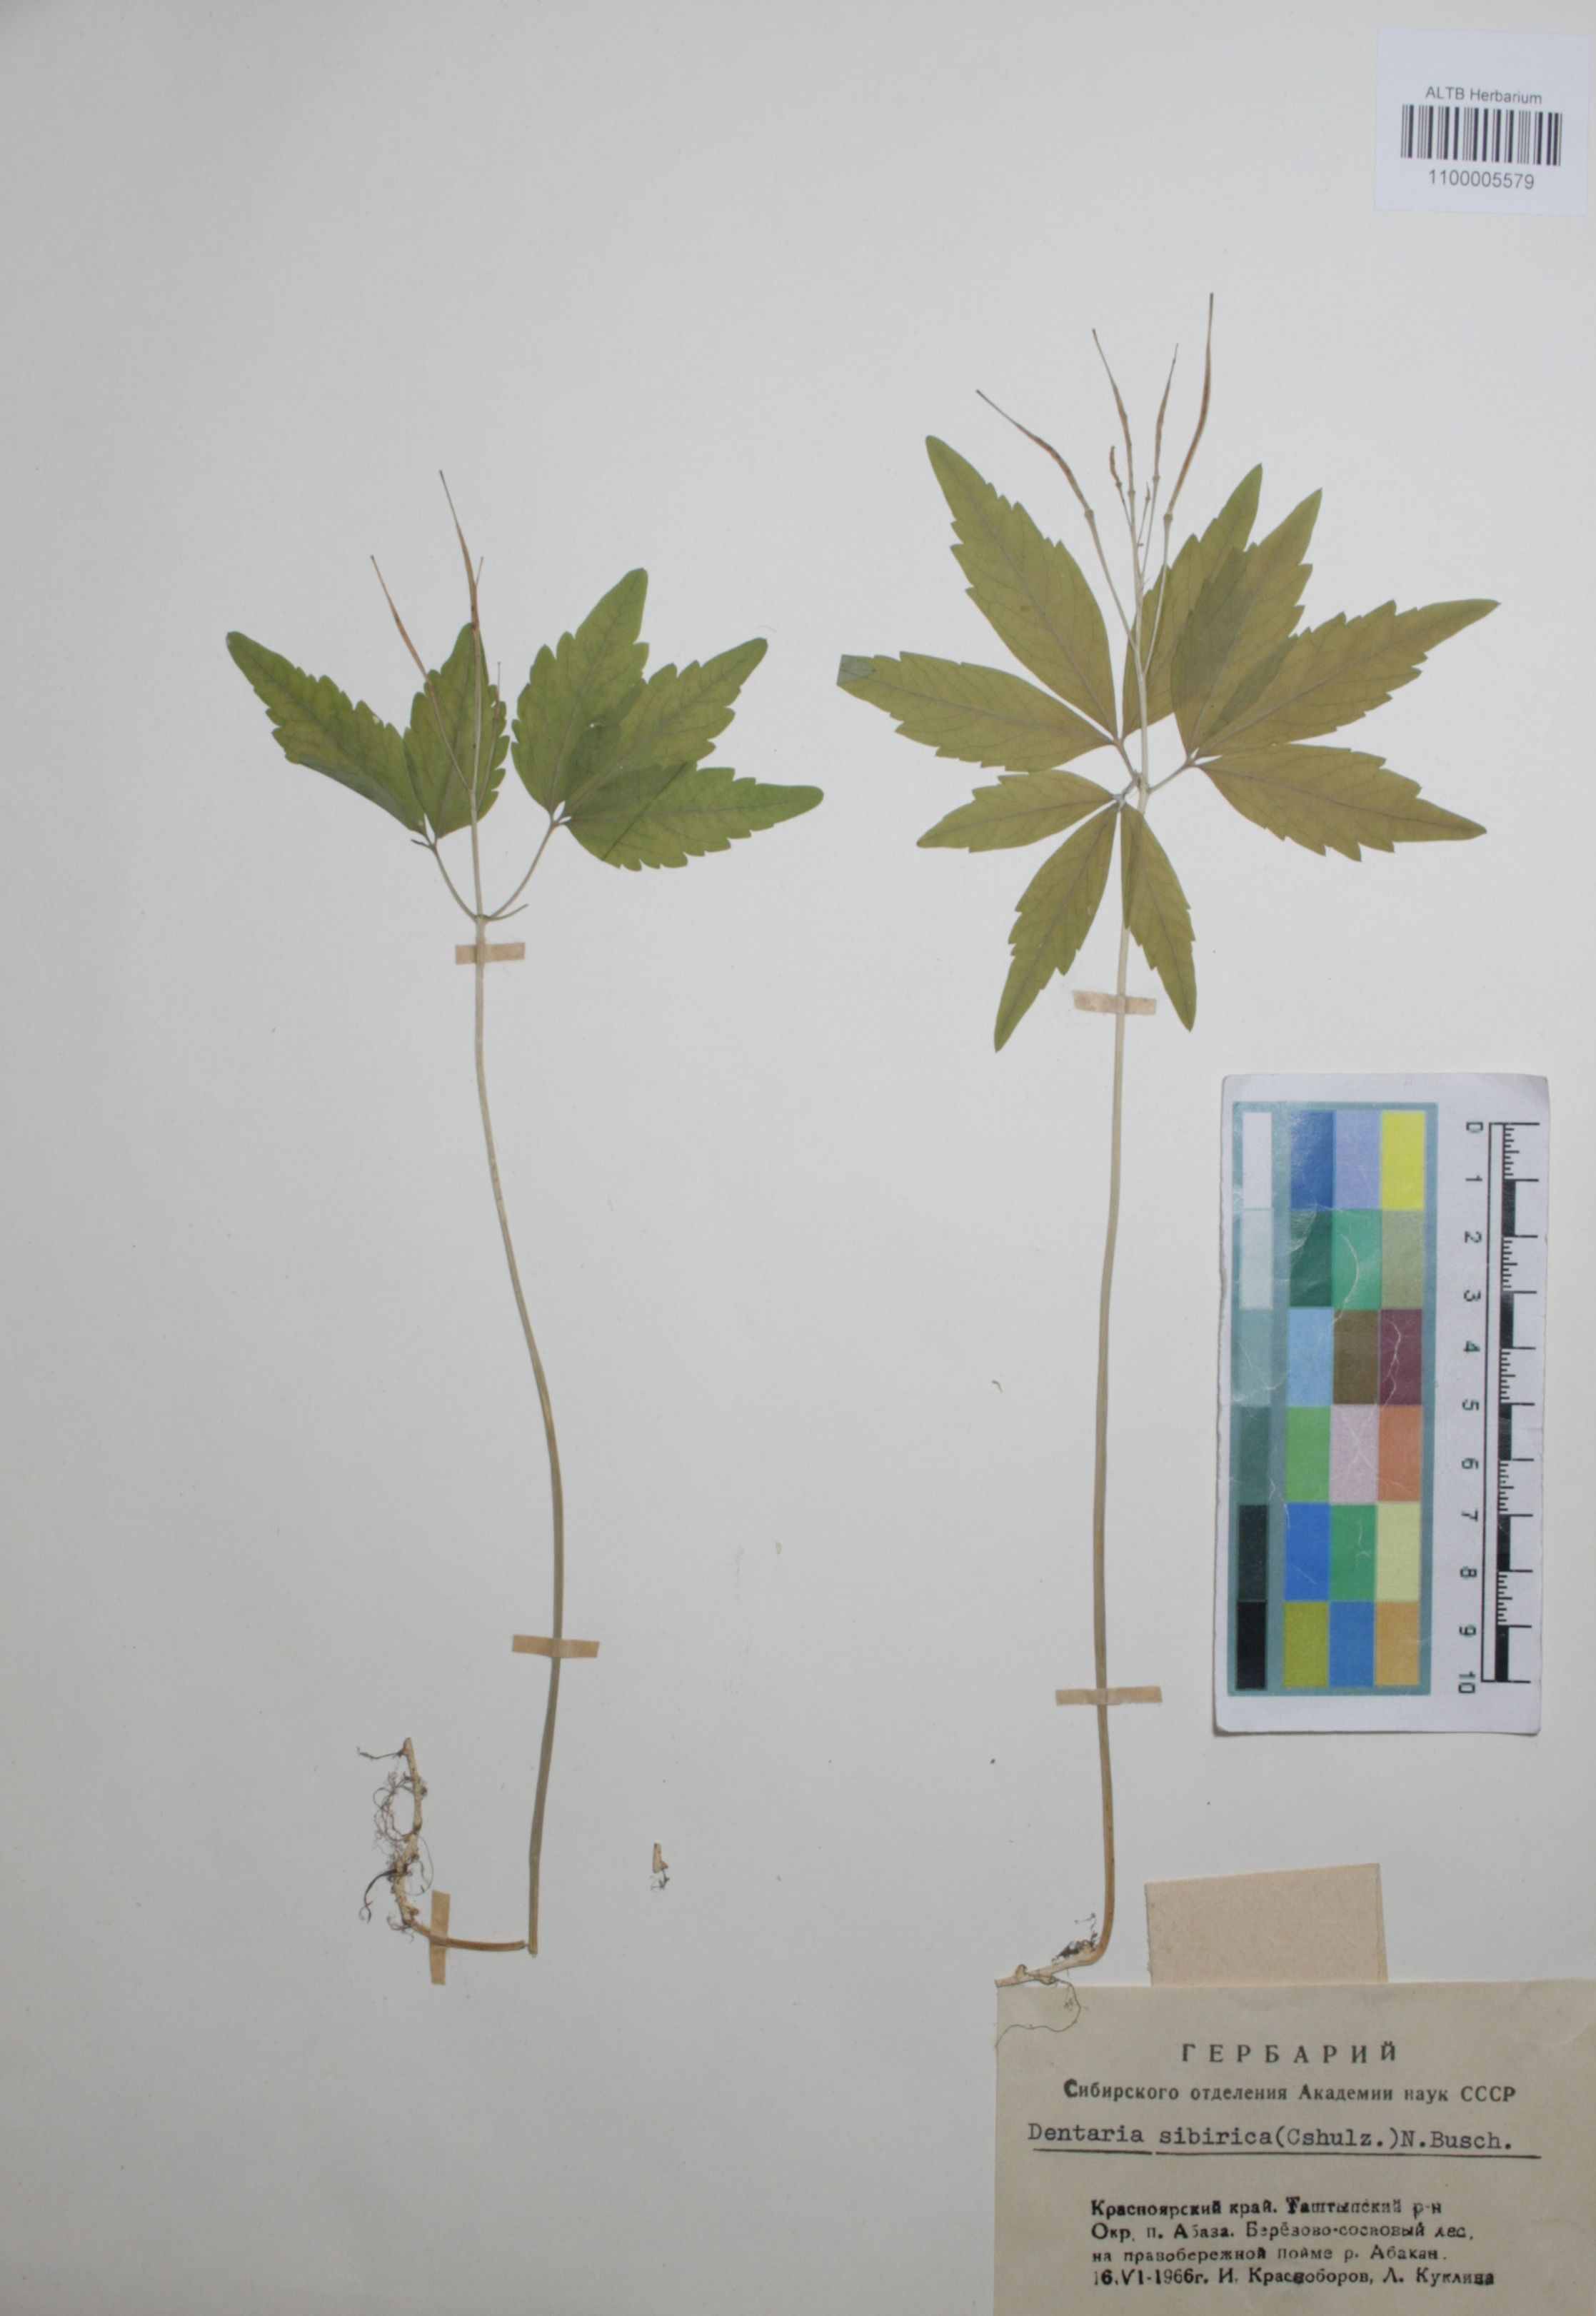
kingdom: Plantae
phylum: Tracheophyta
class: Magnoliopsida
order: Brassicales
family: Brassicaceae
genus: Cardamine
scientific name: Cardamine glanduligera
